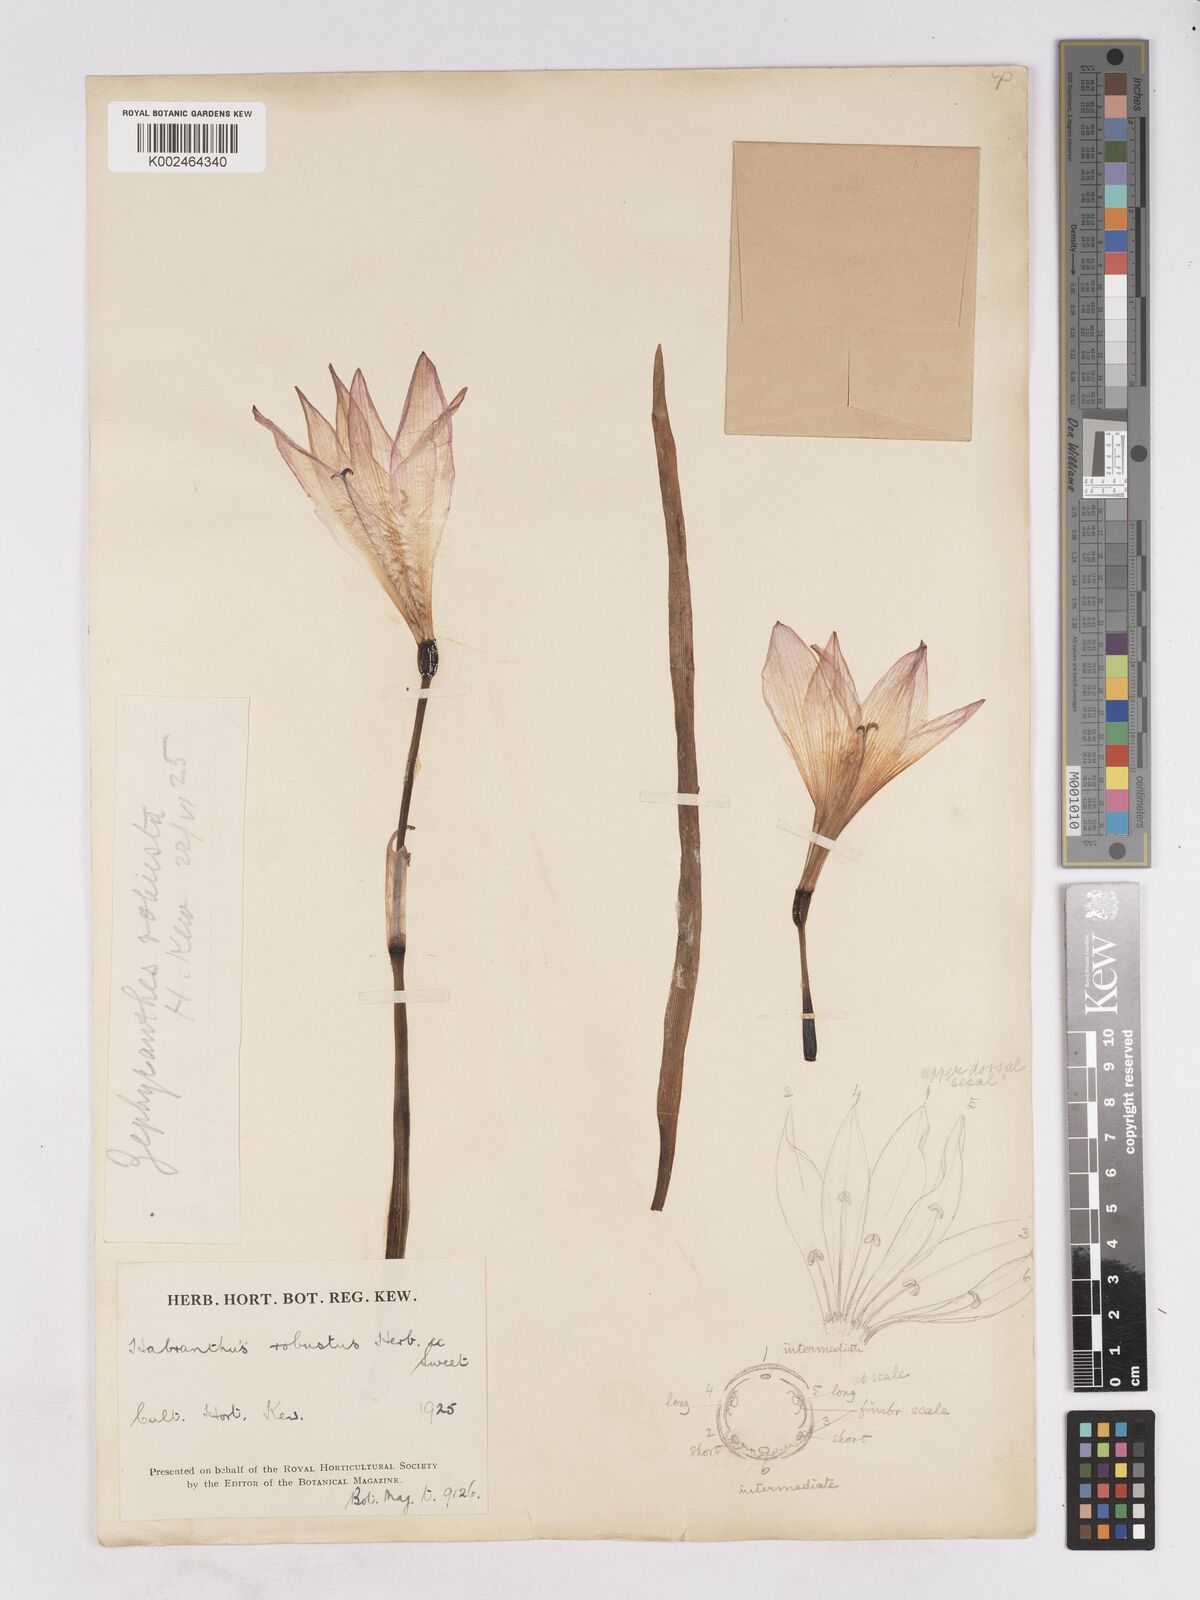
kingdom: Plantae
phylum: Tracheophyta
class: Liliopsida
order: Asparagales
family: Amaryllidaceae
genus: Zephyranthes
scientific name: Zephyranthes robusta
